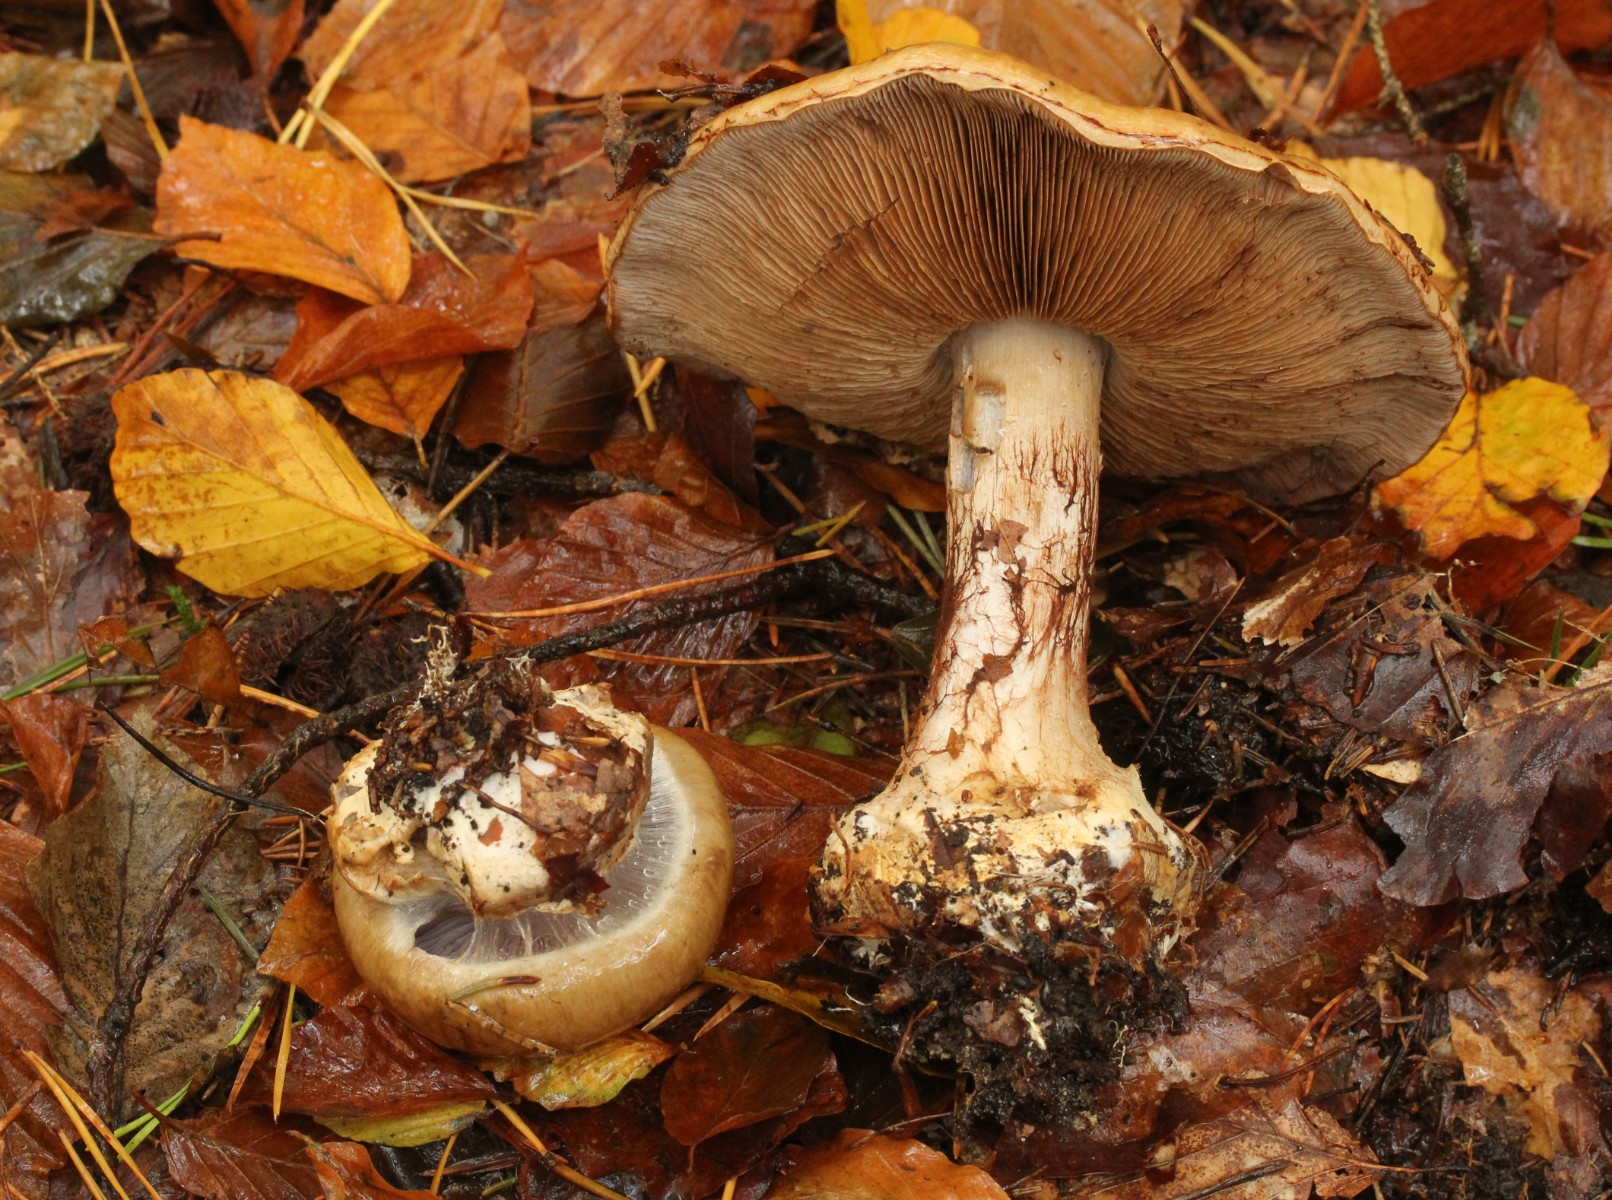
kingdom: Fungi
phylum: Basidiomycota
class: Agaricomycetes
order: Agaricales
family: Cortinariaceae
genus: Cortinarius
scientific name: Cortinarius anserinus
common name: bøge-slørhat
